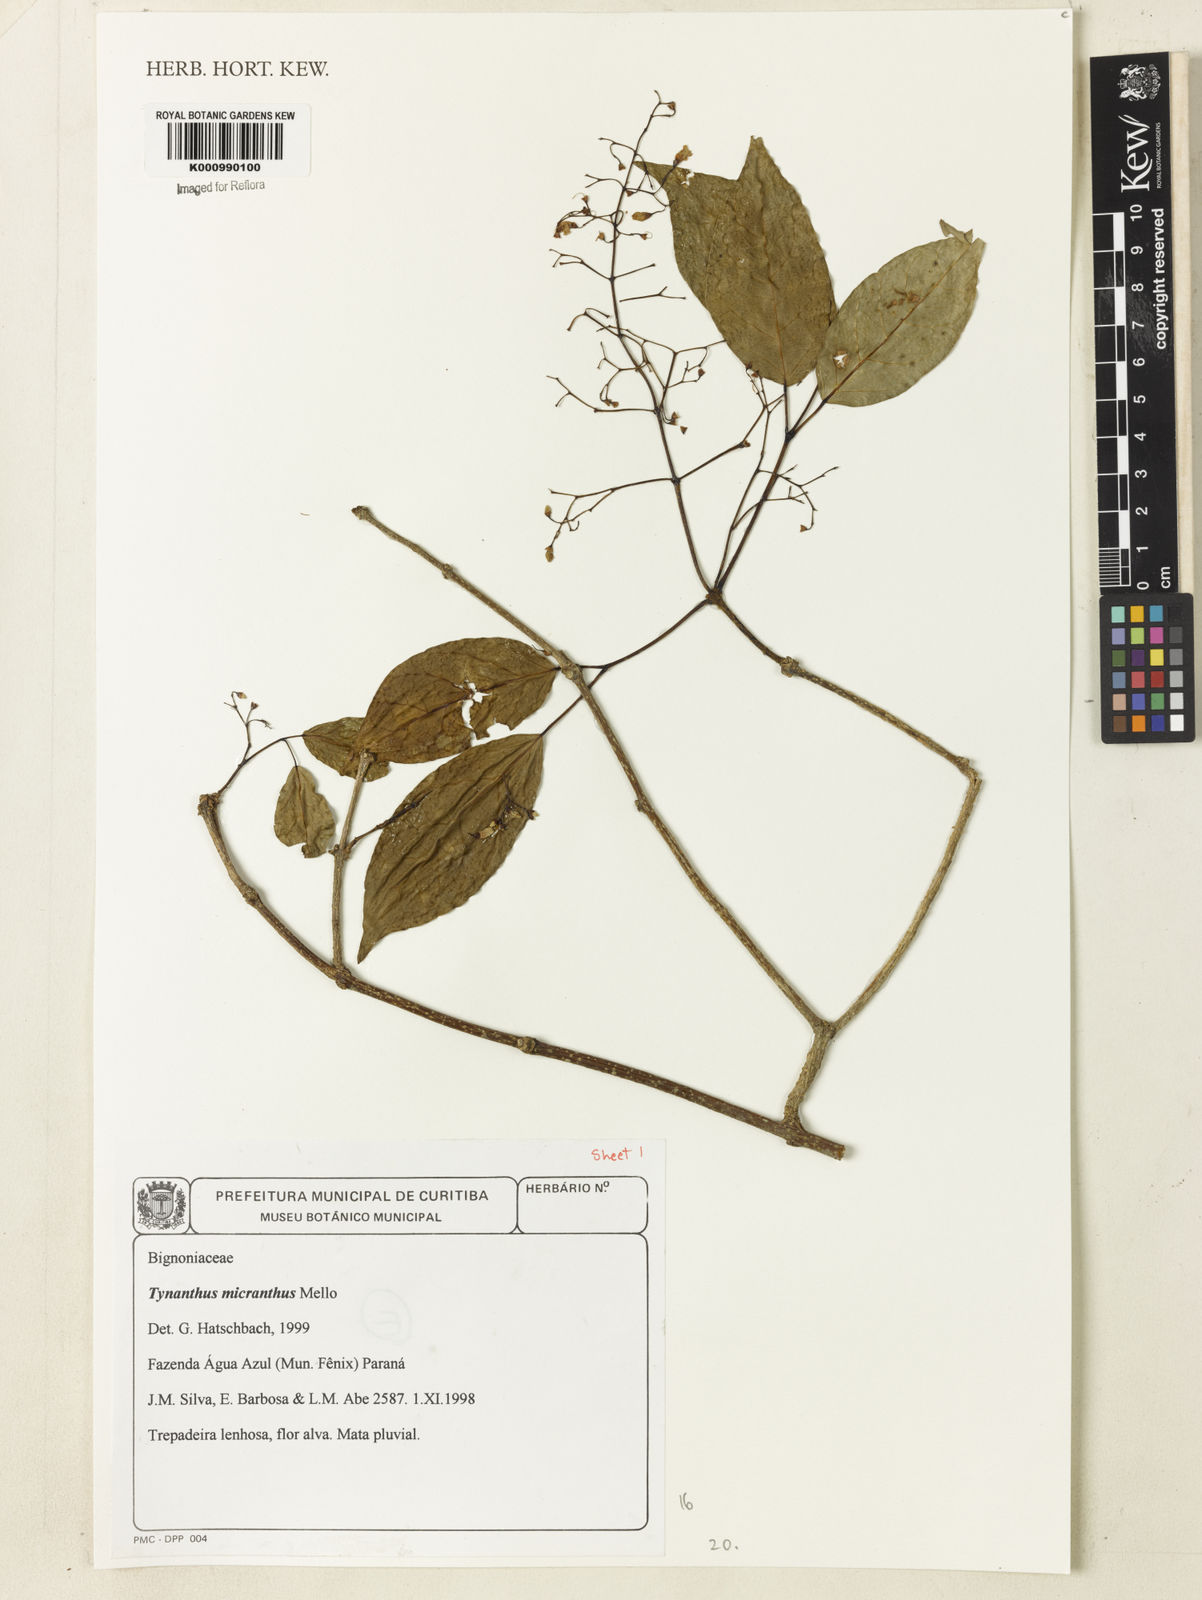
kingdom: Plantae
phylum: Tracheophyta
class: Magnoliopsida
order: Lamiales
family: Bignoniaceae
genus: Tynanthus
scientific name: Tynanthus
